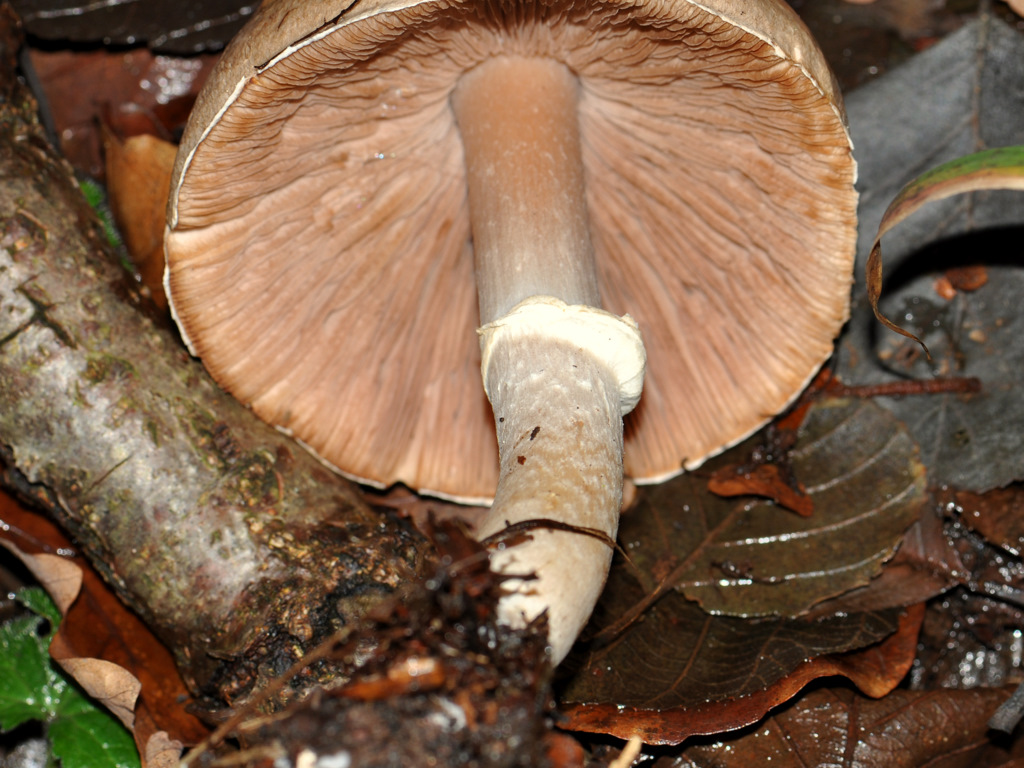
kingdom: Fungi
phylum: Basidiomycota
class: Agaricomycetes
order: Agaricales
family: Agaricaceae
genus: Agaricus
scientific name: Agaricus impudicus
